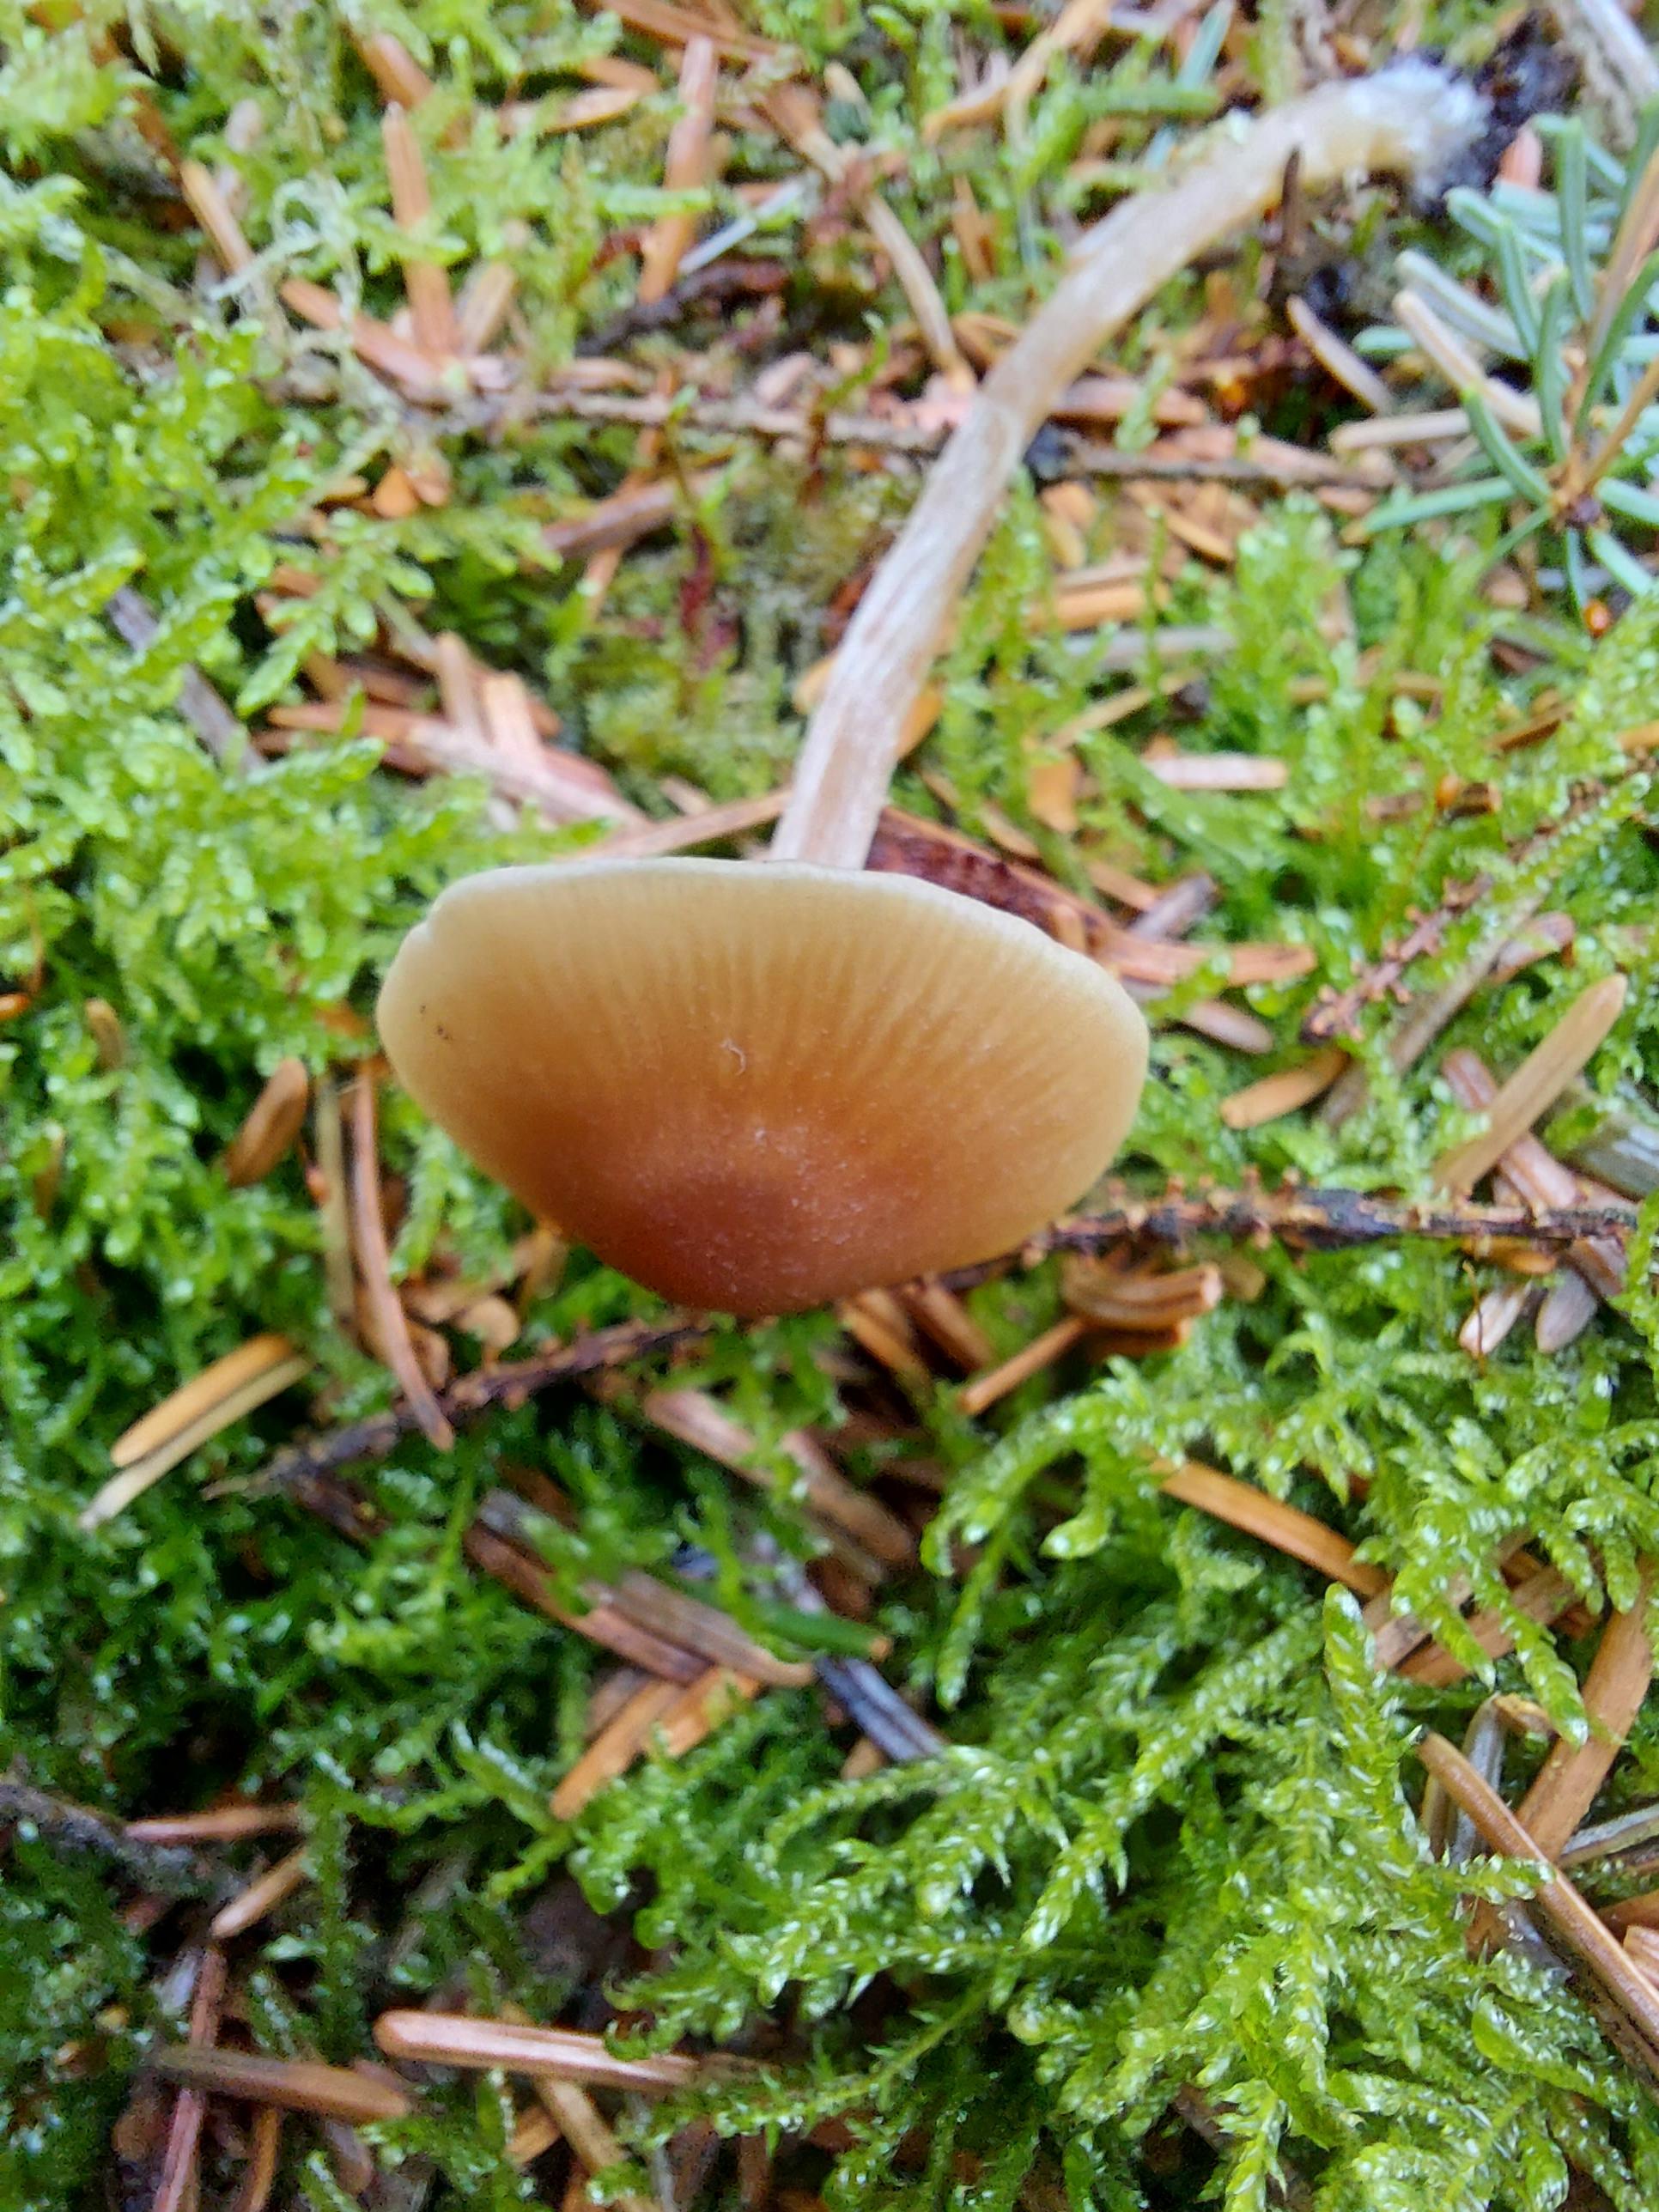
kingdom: Fungi
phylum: Basidiomycota
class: Agaricomycetes
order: Agaricales
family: Entolomataceae
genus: Entoloma
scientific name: Entoloma cetratum
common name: voks-rødblad
